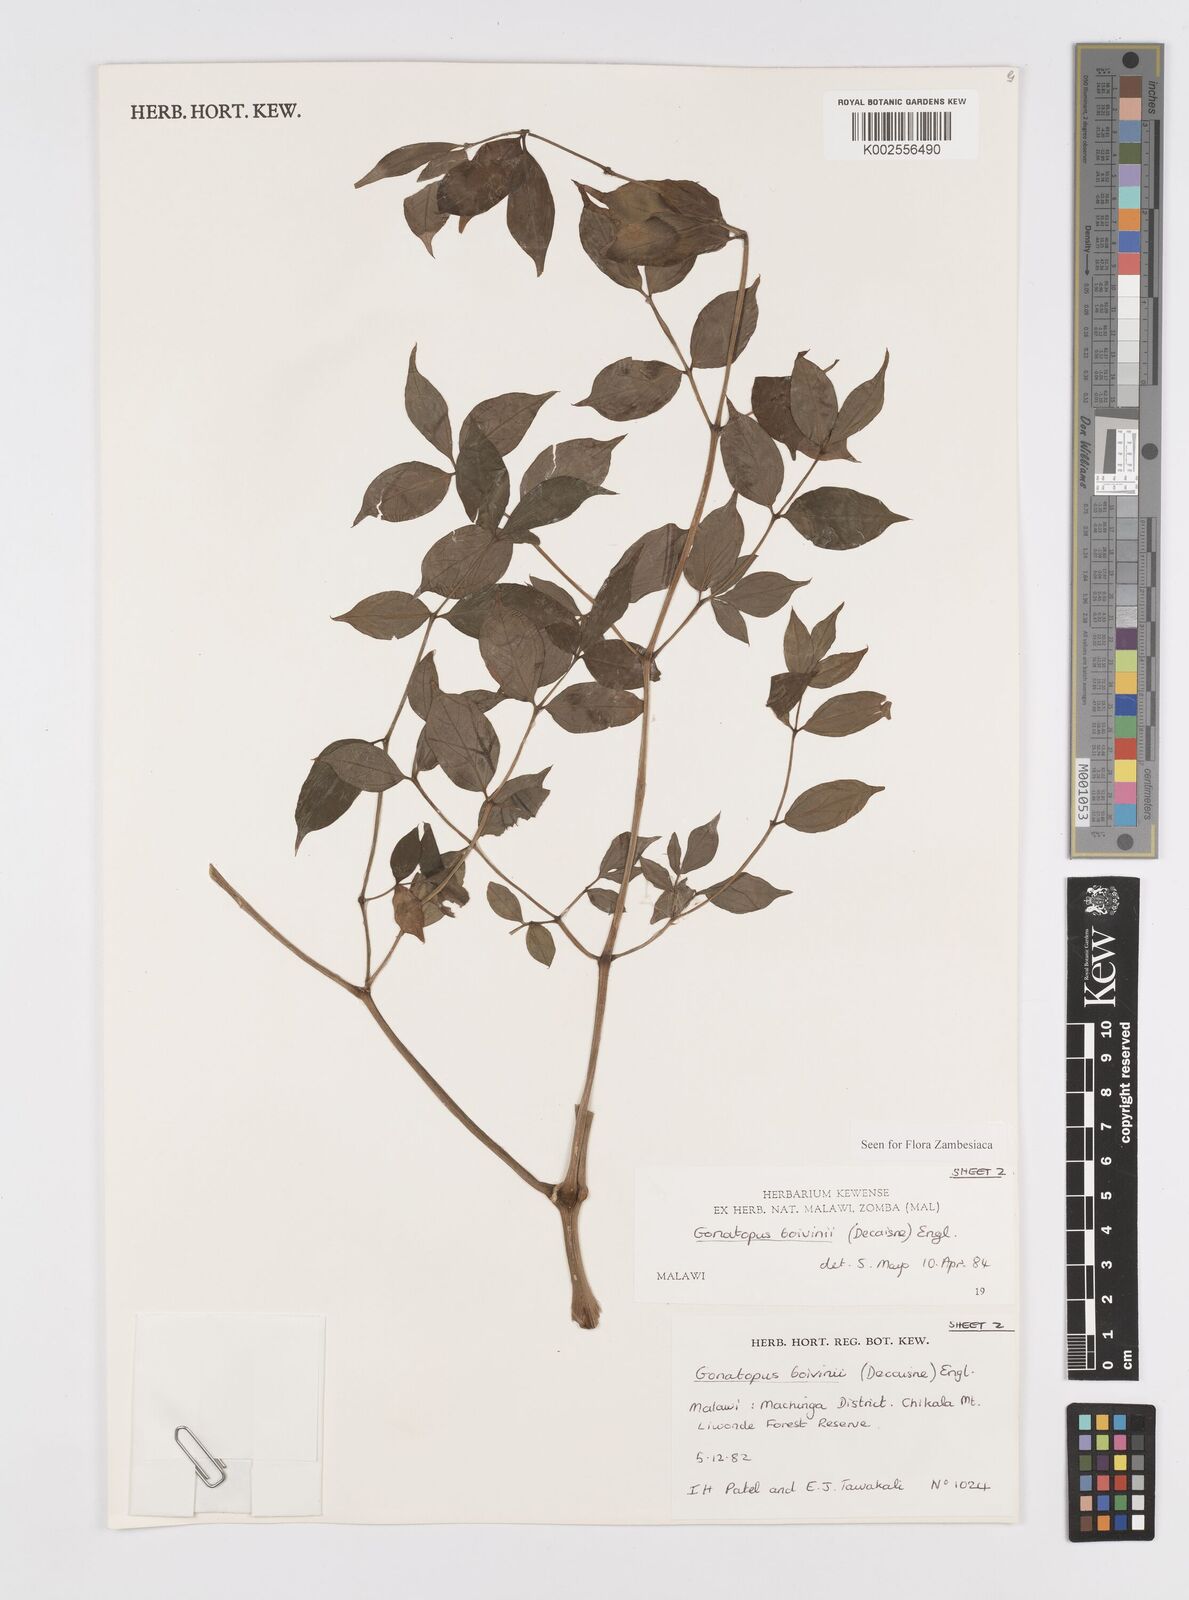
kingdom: Plantae
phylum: Tracheophyta
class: Liliopsida
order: Alismatales
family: Araceae
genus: Gonatopus
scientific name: Gonatopus boivinii
